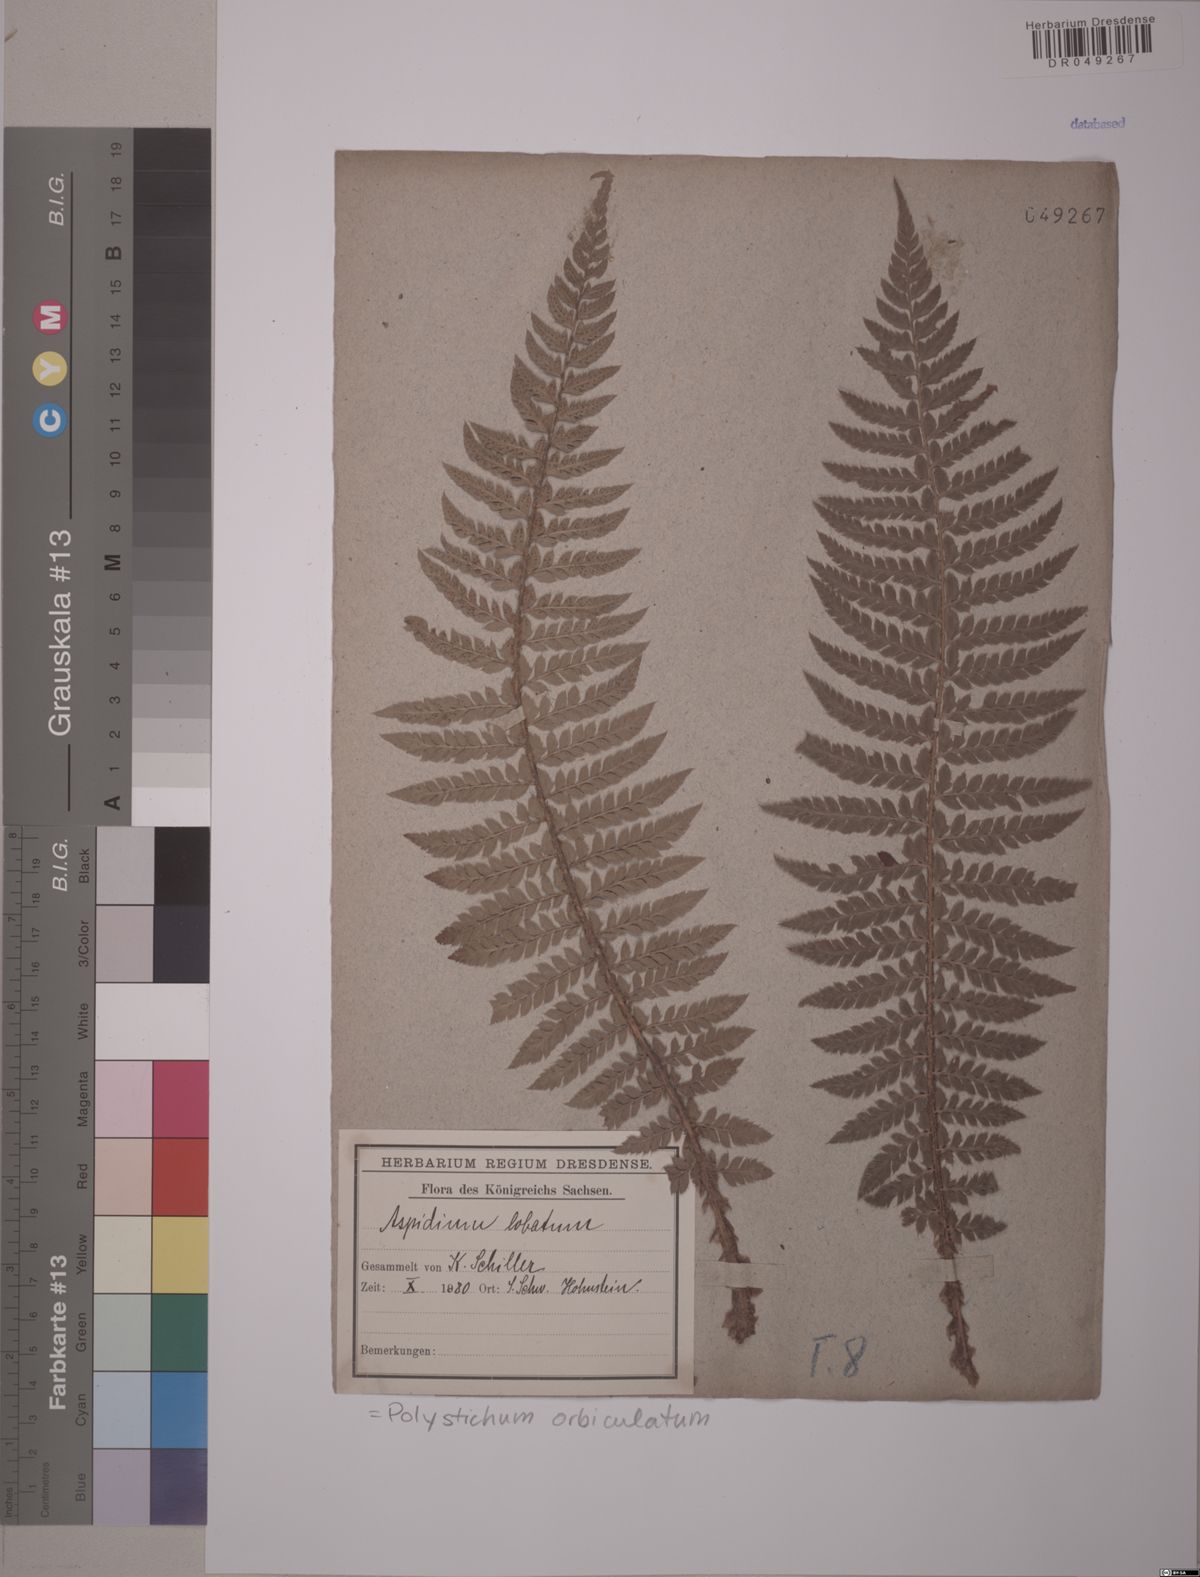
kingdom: Plantae
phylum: Tracheophyta
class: Polypodiopsida
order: Polypodiales
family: Dryopteridaceae
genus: Polystichum
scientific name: Polystichum aculeatum
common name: Hard shield-fern
